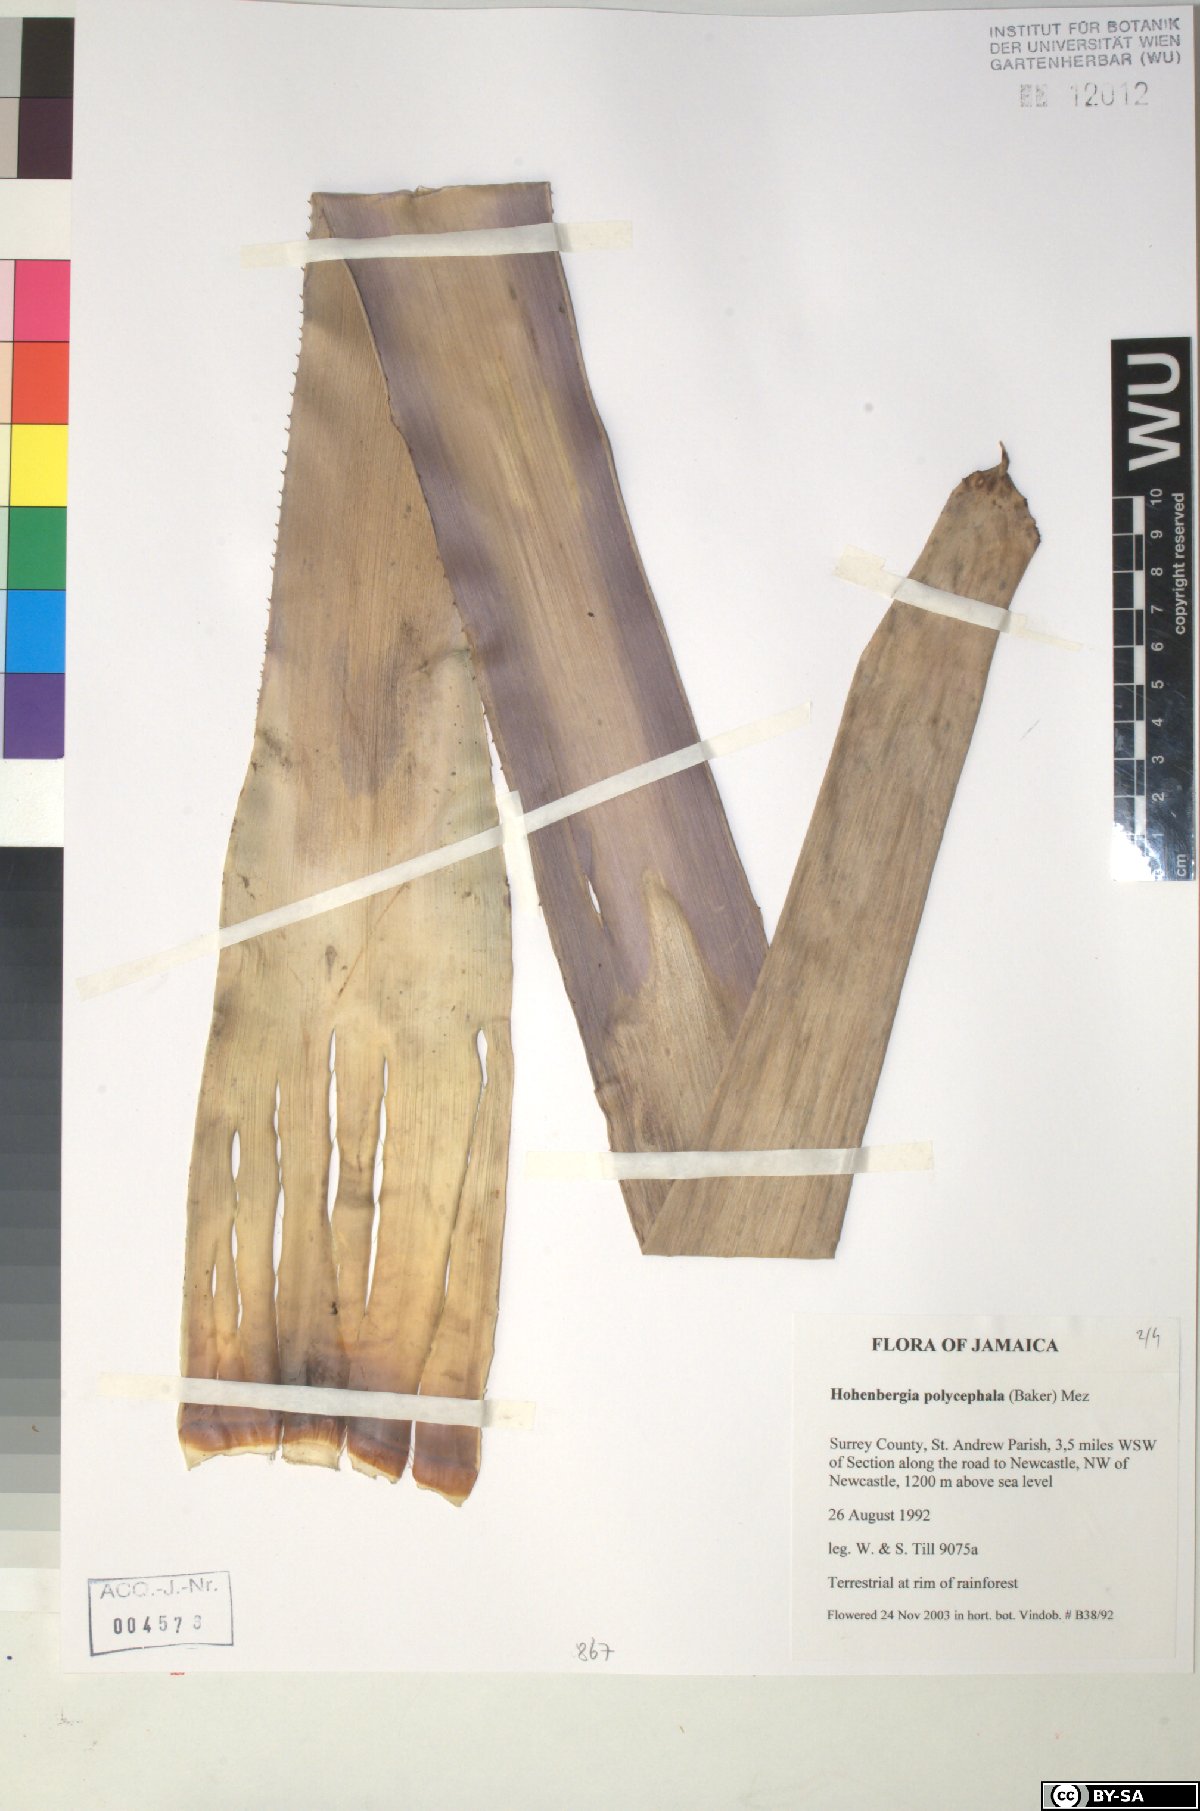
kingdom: Plantae
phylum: Tracheophyta
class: Liliopsida
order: Poales
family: Bromeliaceae
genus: Wittmackia
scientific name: Wittmackia polycephala
